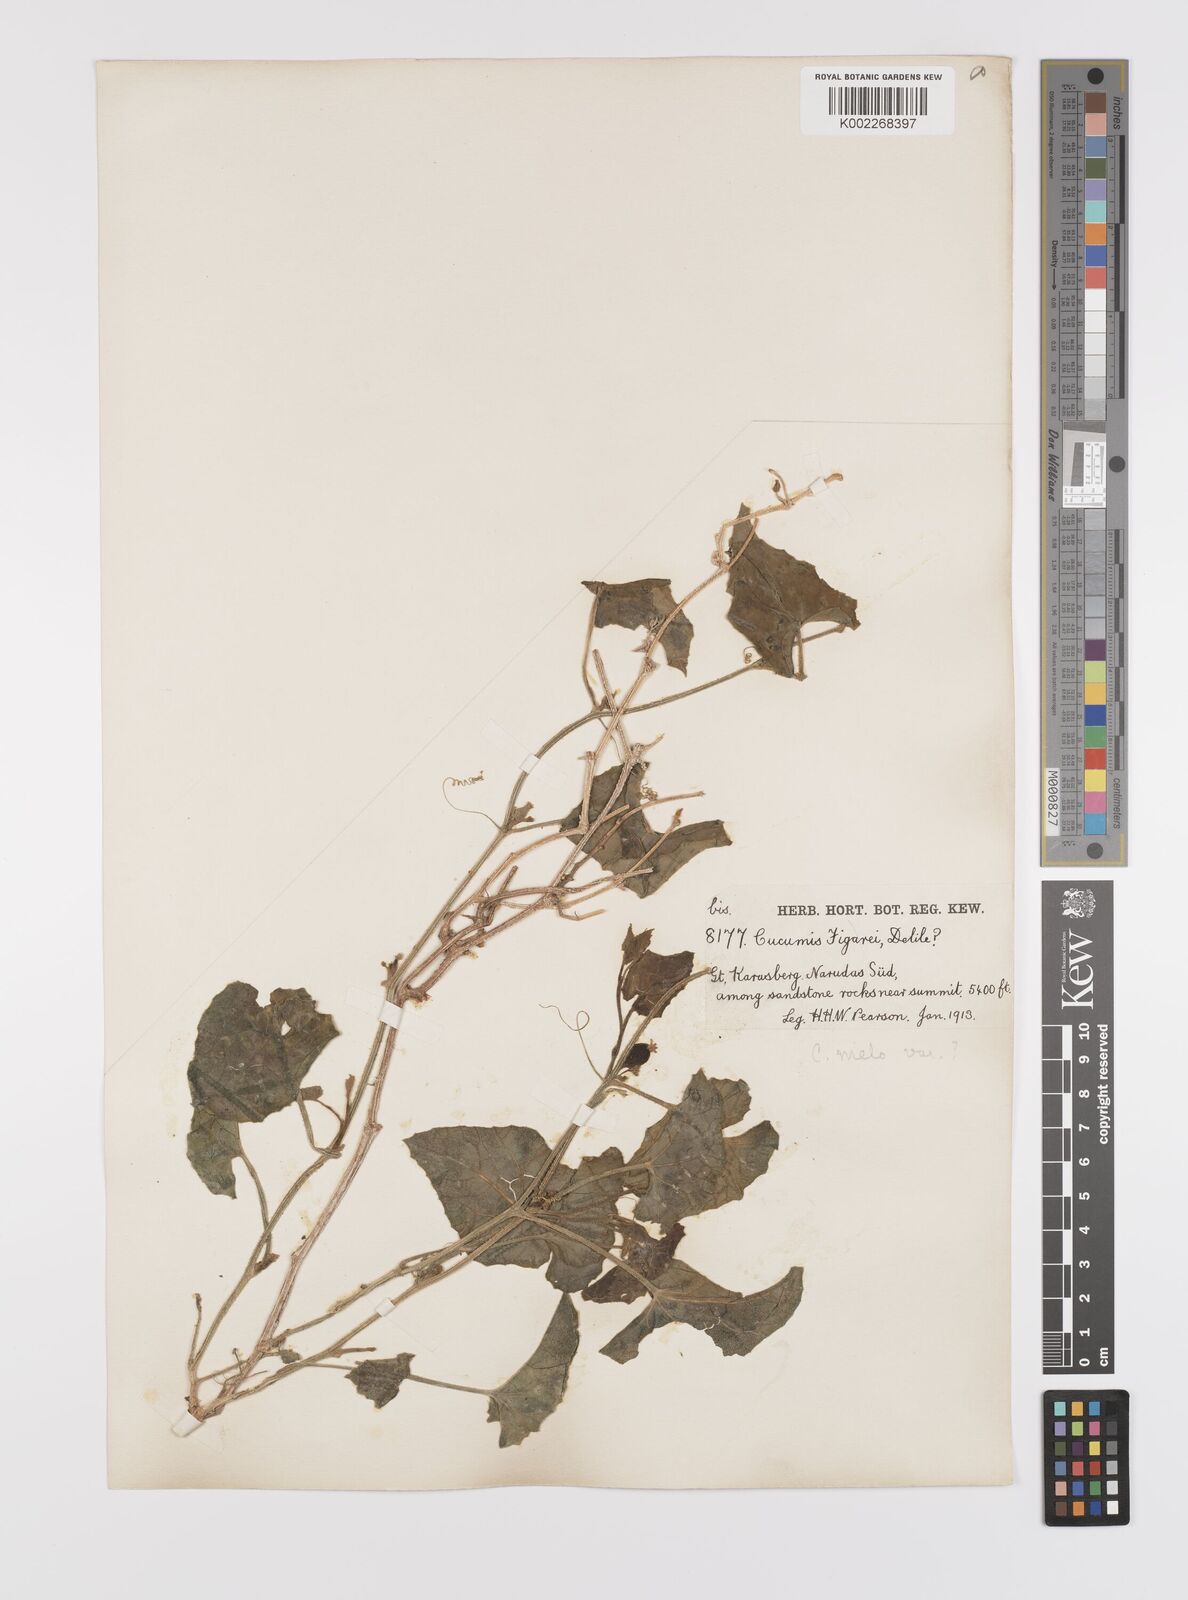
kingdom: Plantae
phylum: Tracheophyta
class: Magnoliopsida
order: Cucurbitales
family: Cucurbitaceae
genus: Cucumis
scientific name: Cucumis melo
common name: Melon
